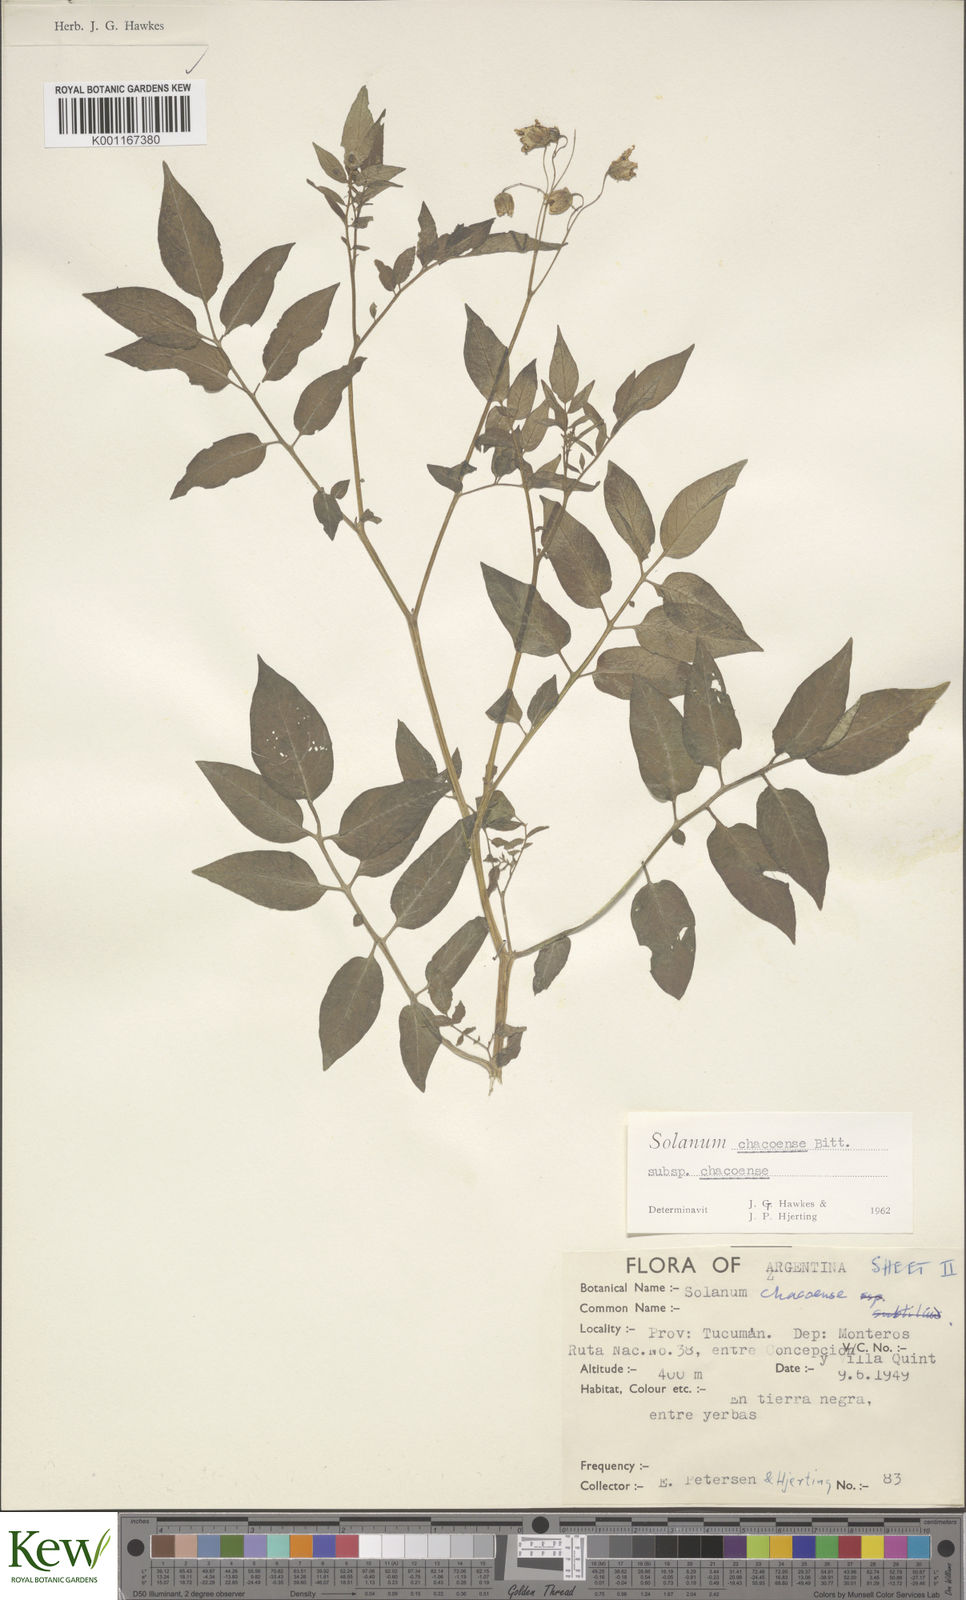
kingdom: Plantae
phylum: Tracheophyta
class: Magnoliopsida
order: Solanales
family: Solanaceae
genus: Solanum
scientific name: Solanum chacoense
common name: Chaco potato
